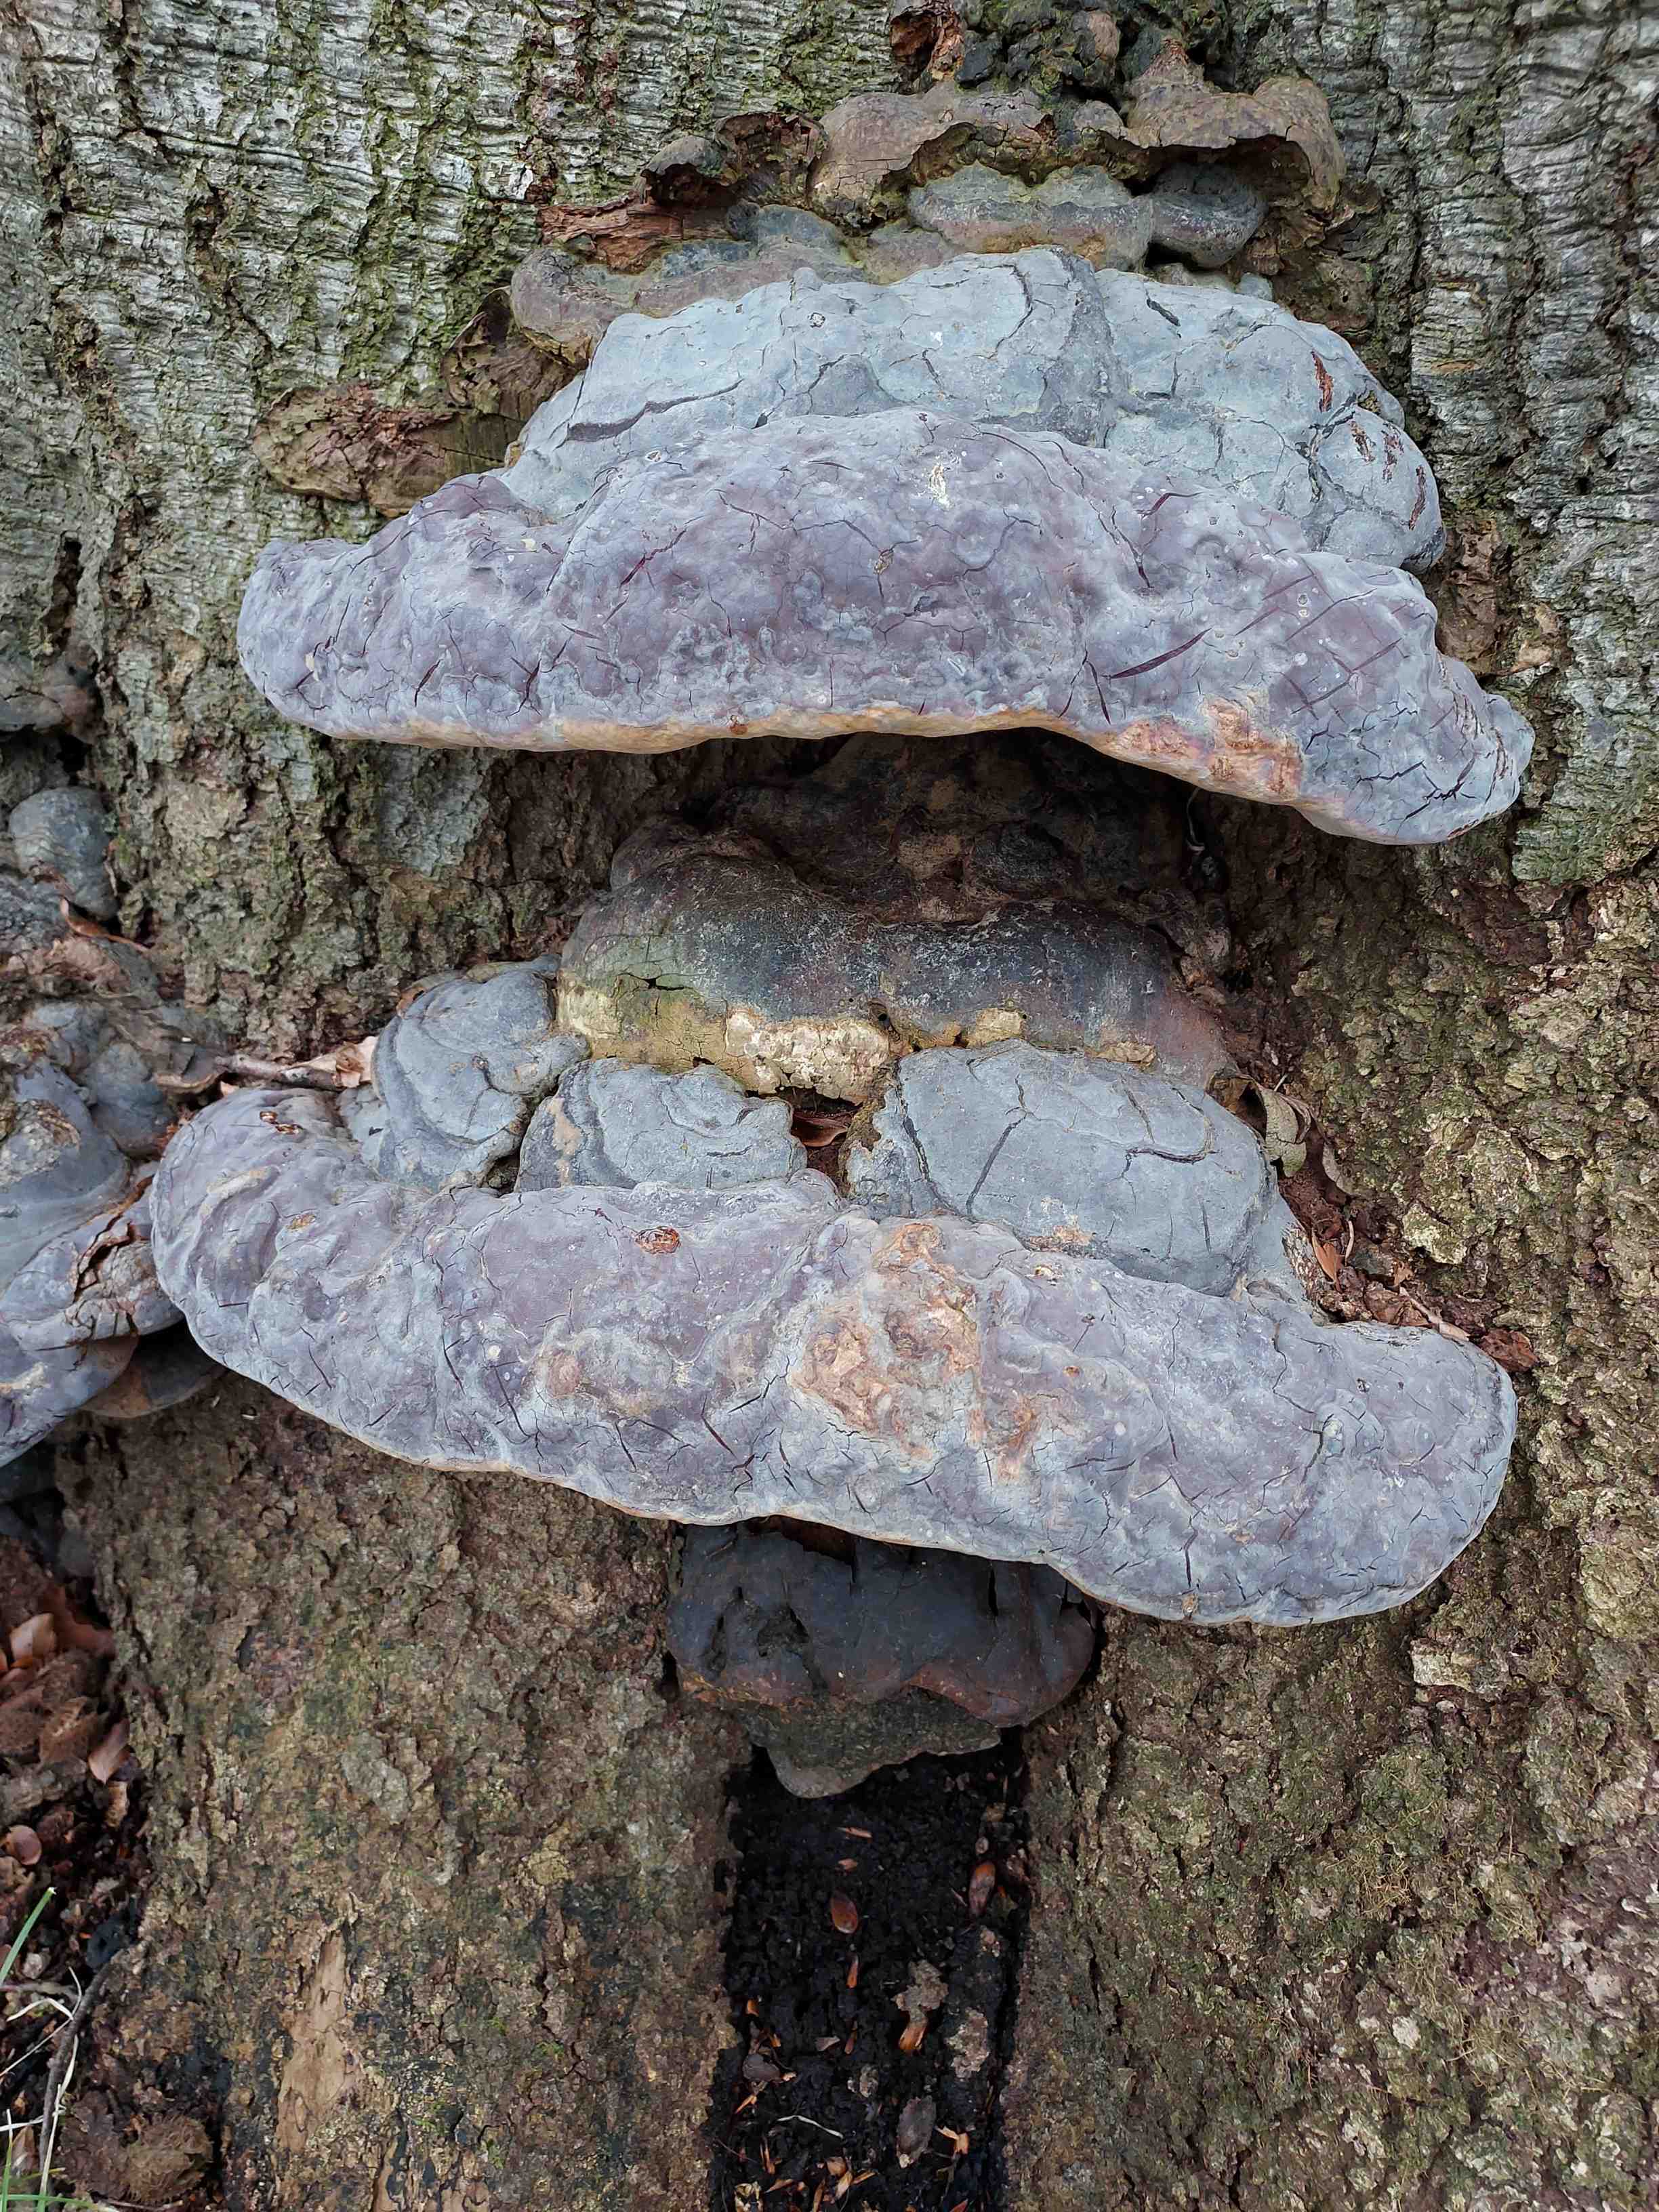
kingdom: Fungi
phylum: Basidiomycota
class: Agaricomycetes
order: Polyporales
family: Polyporaceae
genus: Ganoderma
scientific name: Ganoderma pfeifferi
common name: kobberrød lakporesvamp
